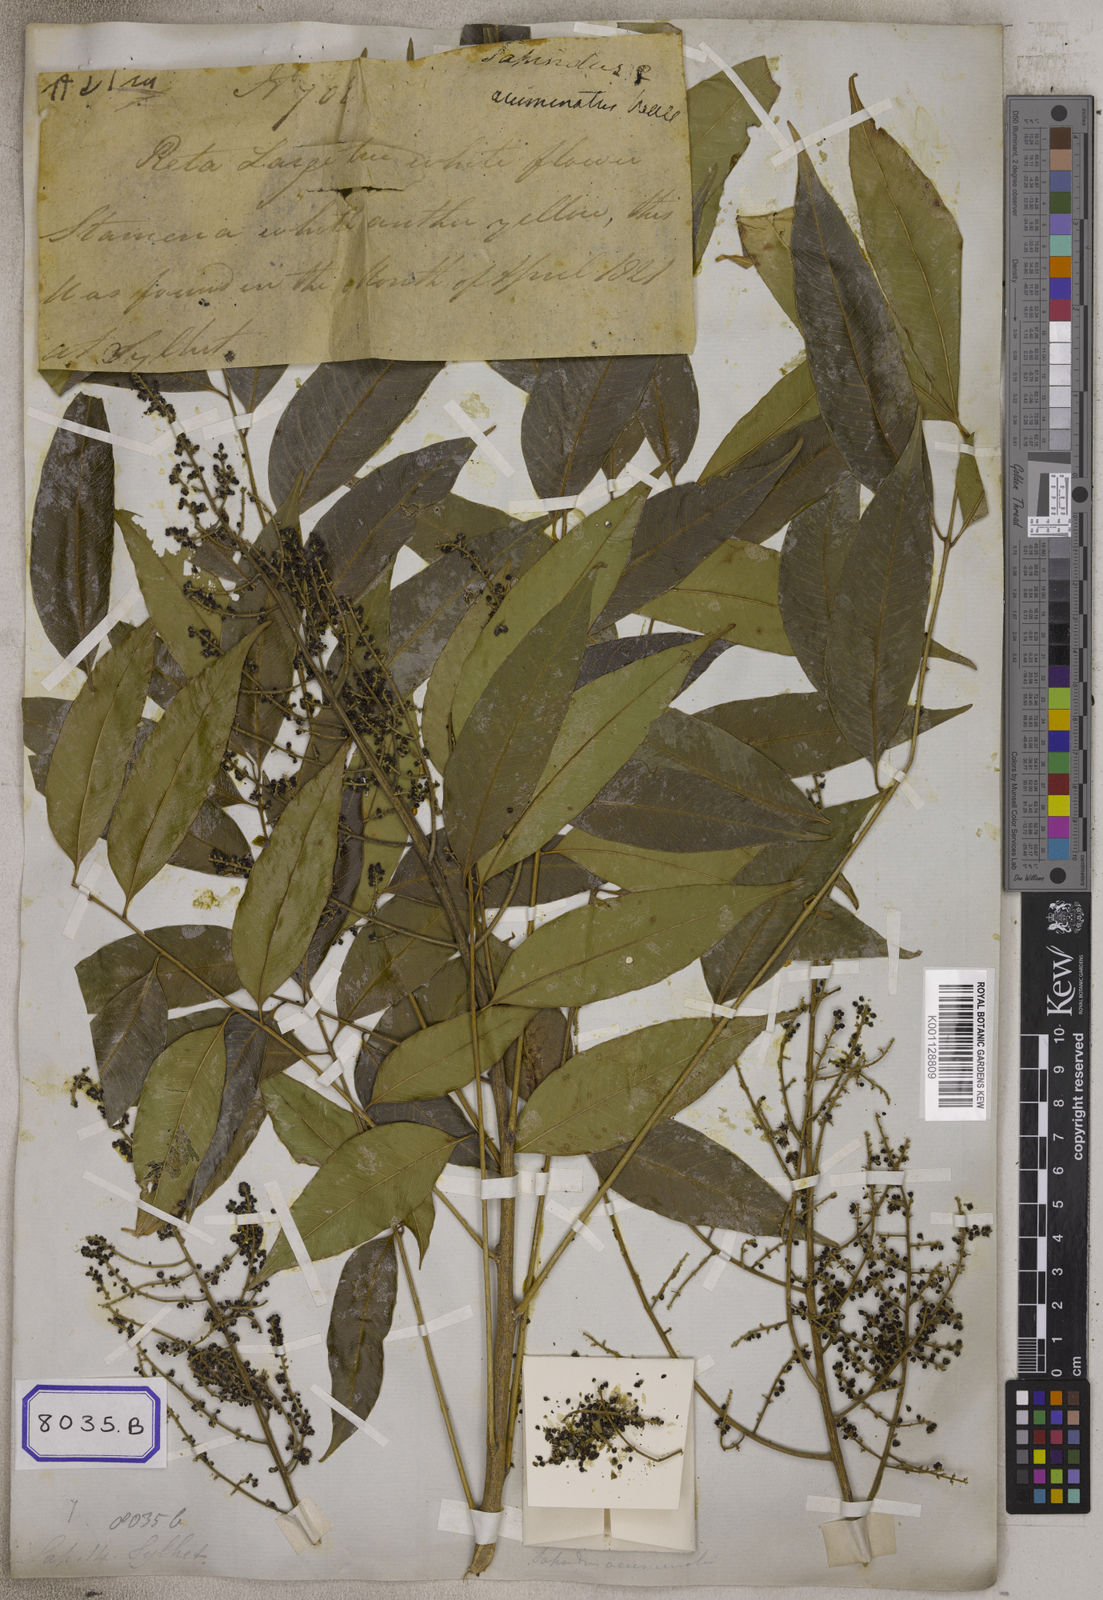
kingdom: Plantae
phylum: Tracheophyta
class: Magnoliopsida
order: Sapindales
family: Sapindaceae
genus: Sapindus
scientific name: Sapindus
